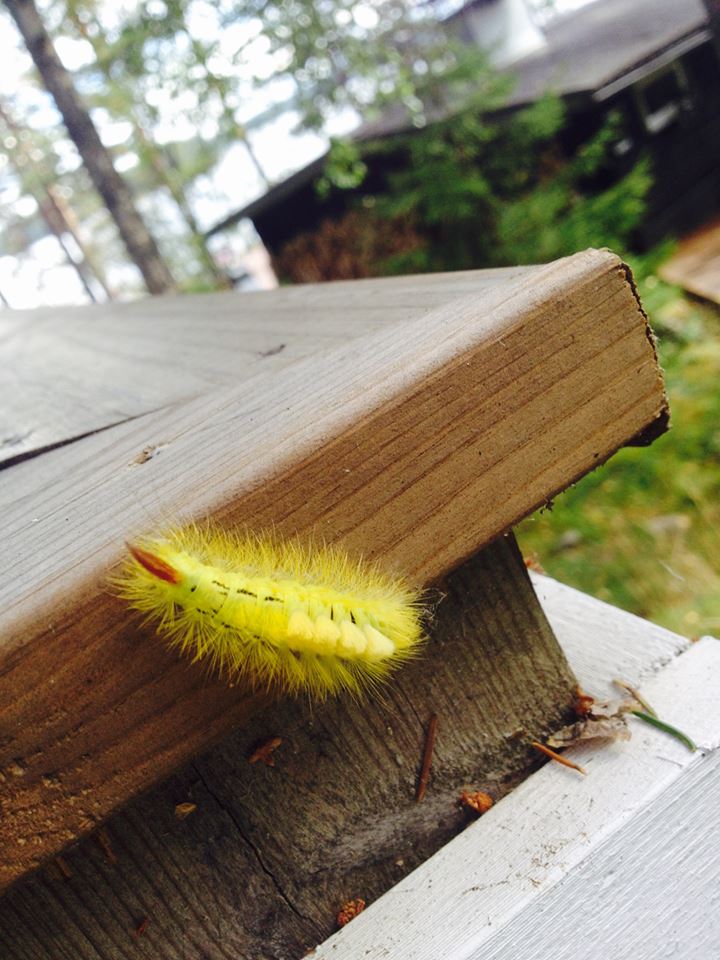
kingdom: Animalia
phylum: Arthropoda
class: Insecta
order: Lepidoptera
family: Erebidae
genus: Calliteara
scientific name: Calliteara pudibunda
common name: Pale tussock
